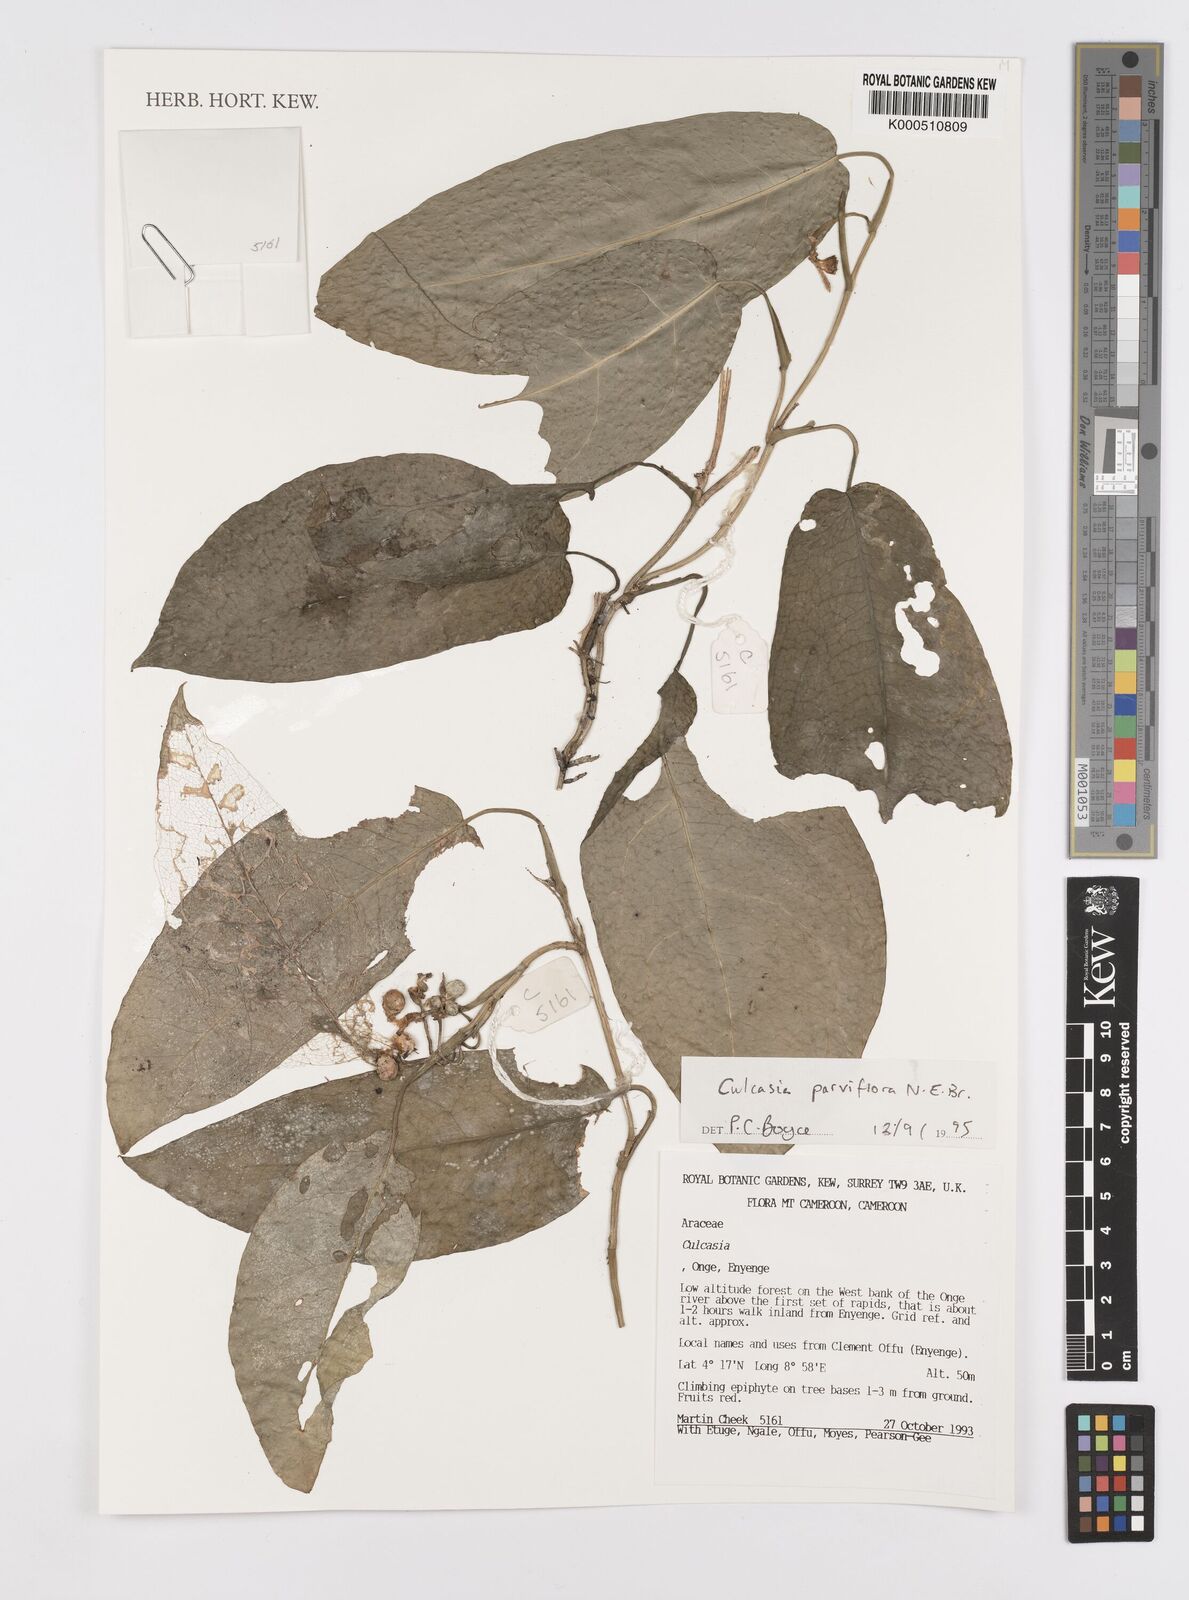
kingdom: Plantae
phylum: Tracheophyta
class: Liliopsida
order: Alismatales
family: Araceae
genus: Culcasia
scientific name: Culcasia parviflora
